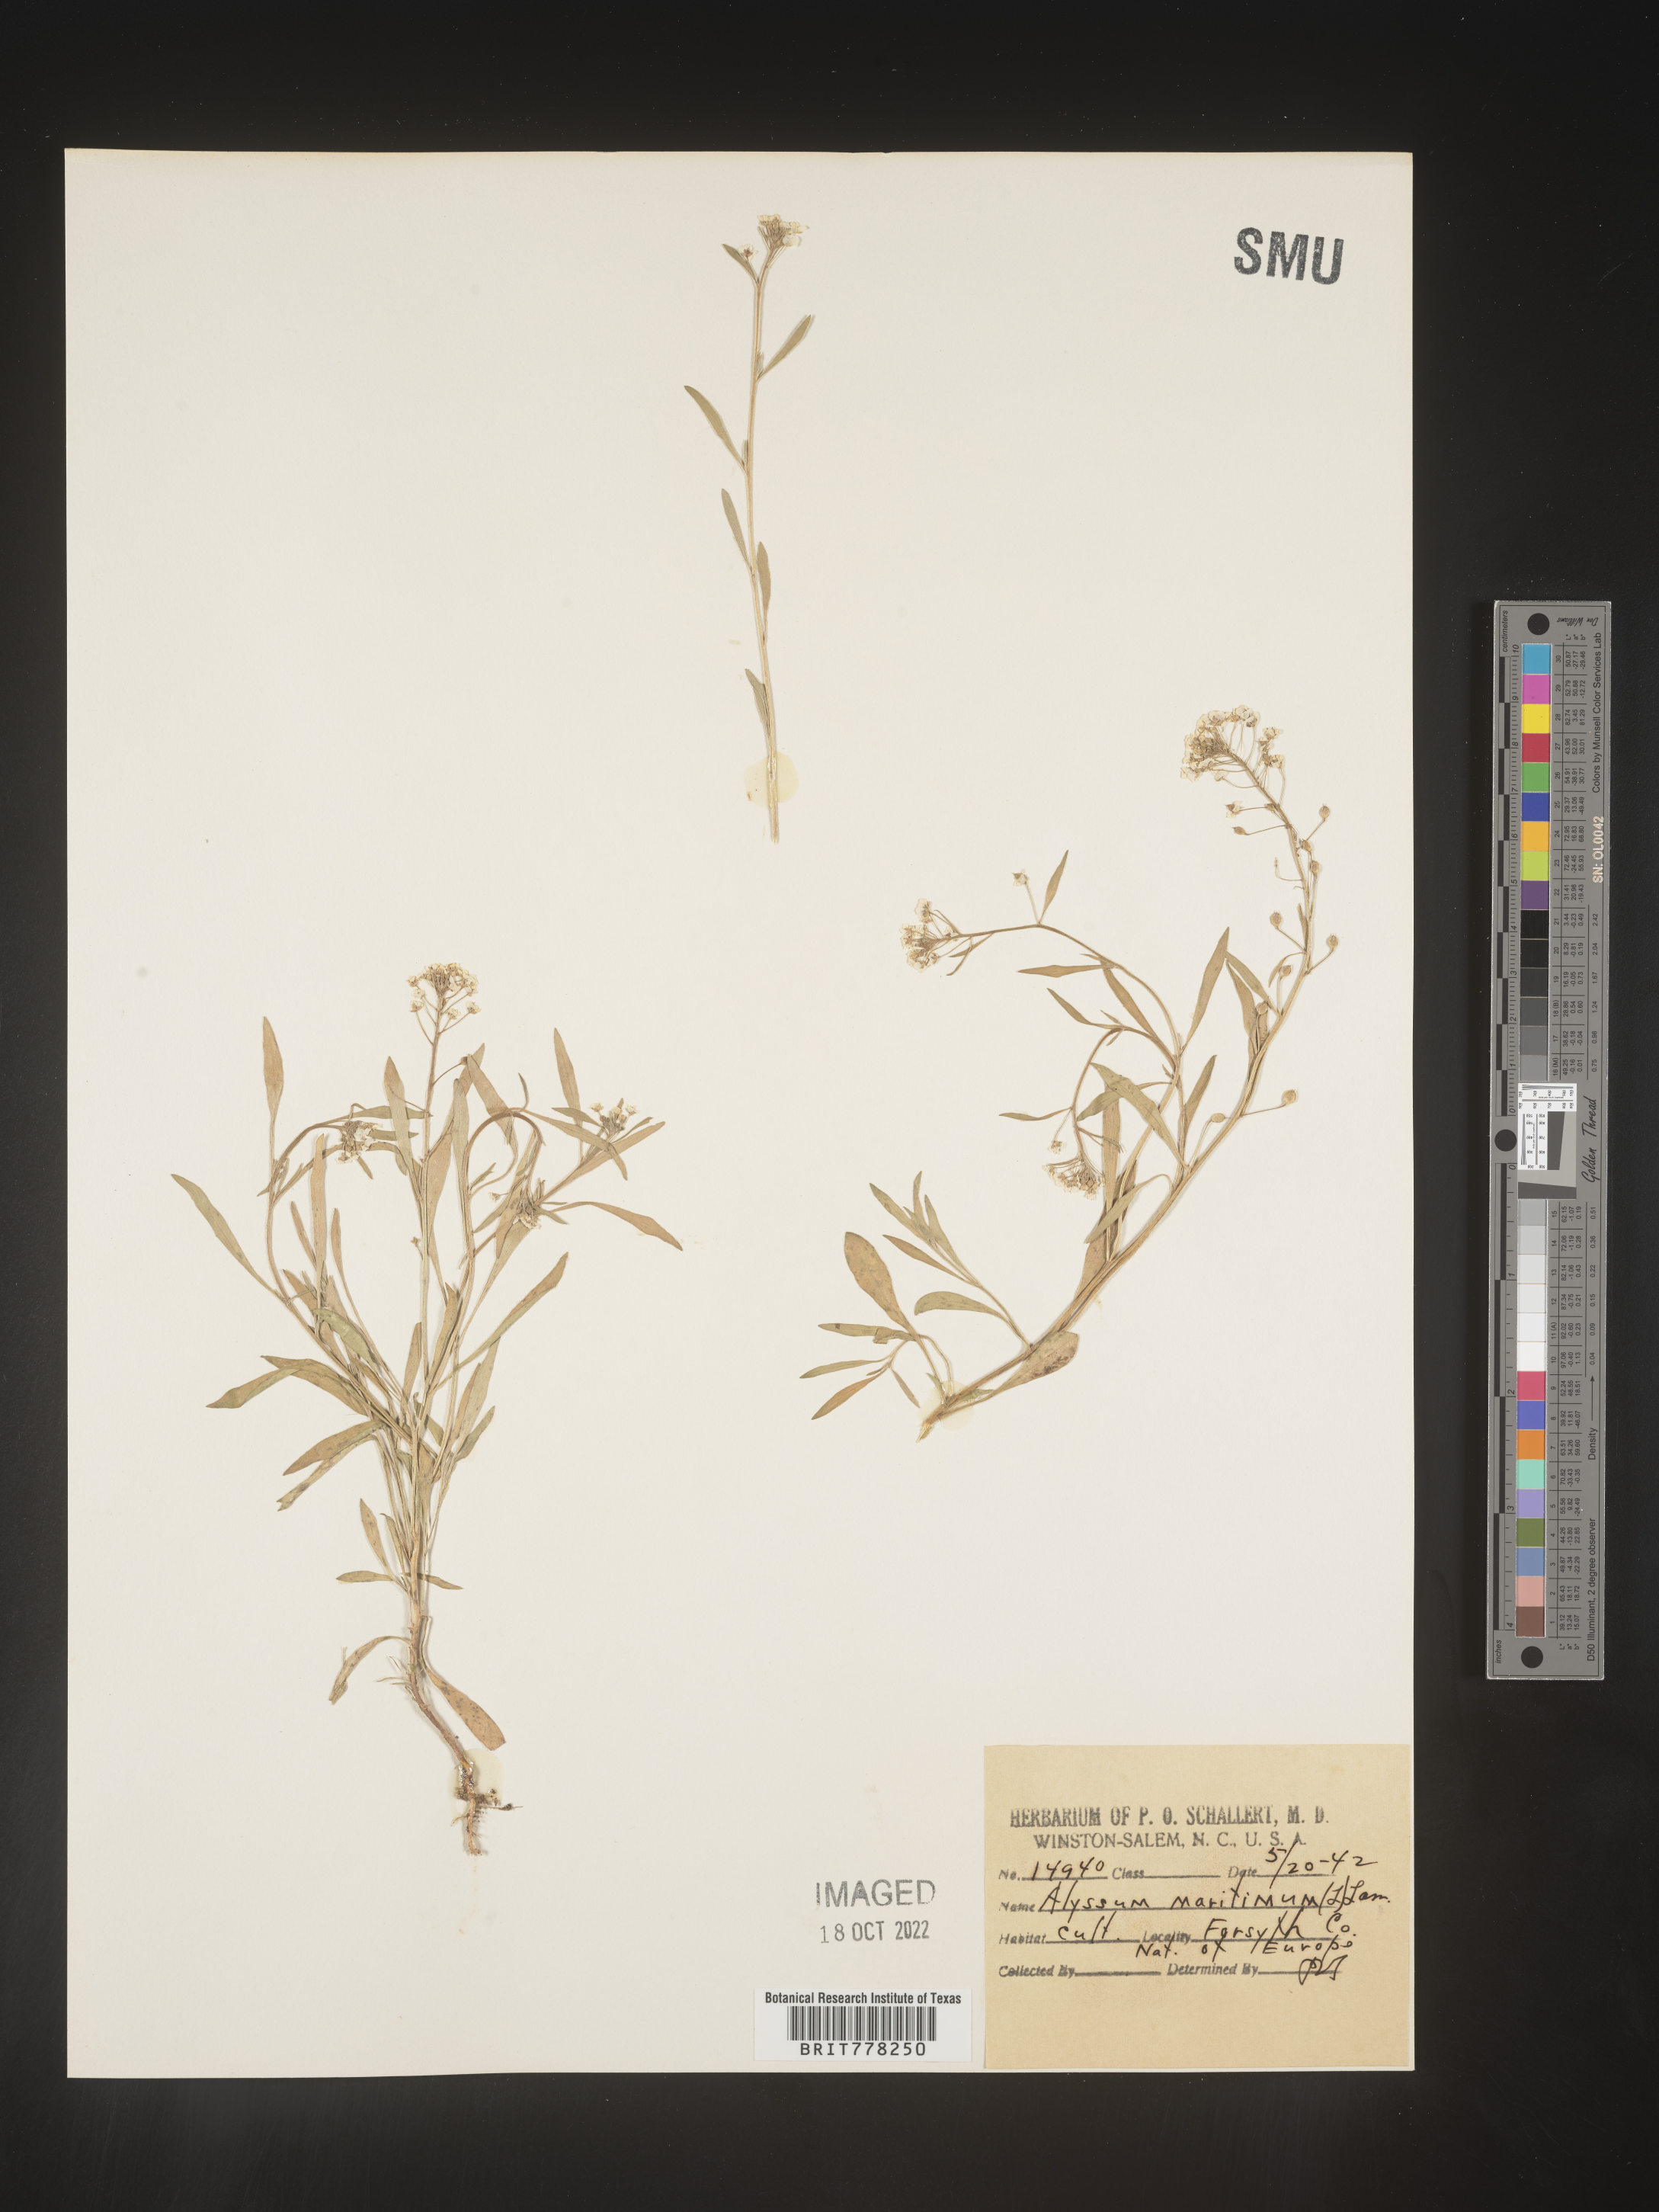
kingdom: Plantae
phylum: Tracheophyta
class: Magnoliopsida
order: Brassicales
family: Brassicaceae
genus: Lobularia
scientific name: Lobularia
